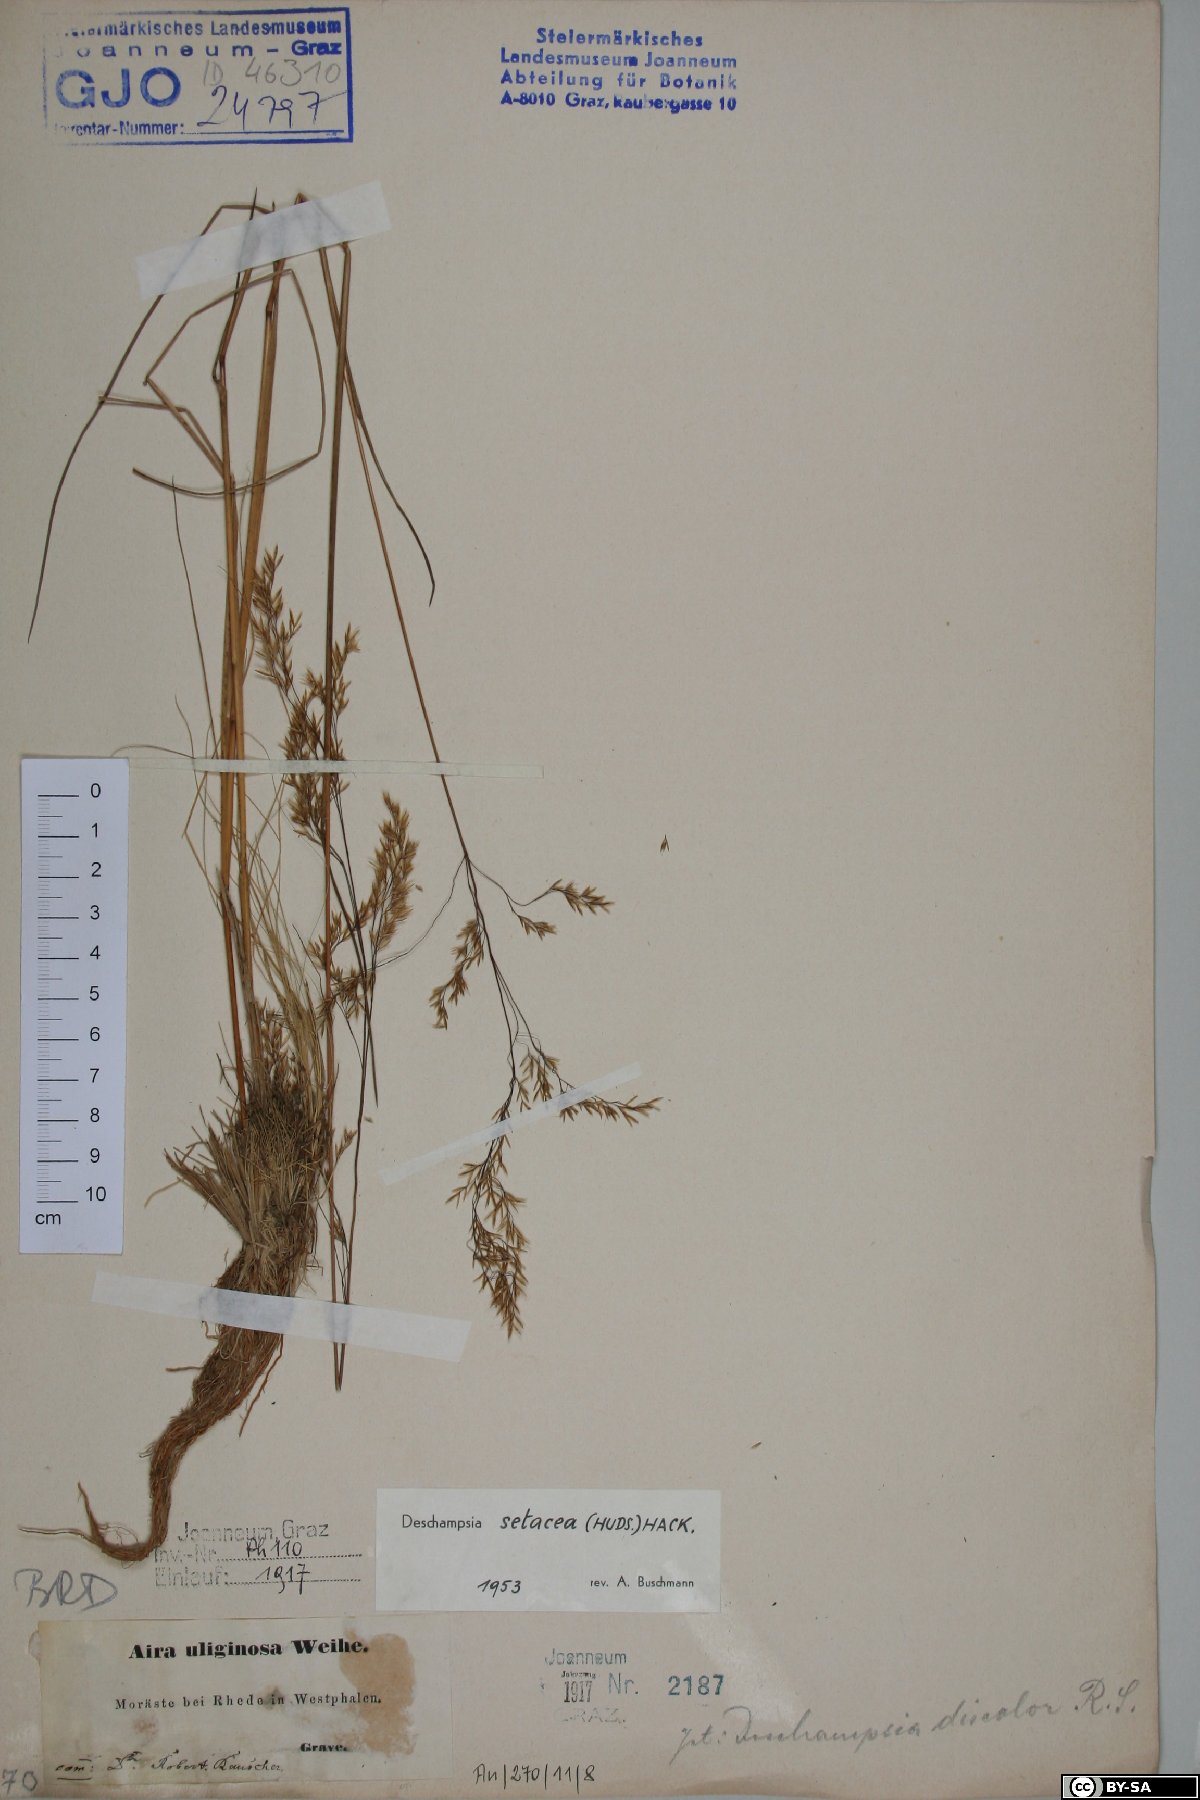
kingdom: Plantae
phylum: Tracheophyta
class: Liliopsida
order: Poales
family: Poaceae
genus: Deschampsia
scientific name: Deschampsia setacea
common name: Bog hair-grass
